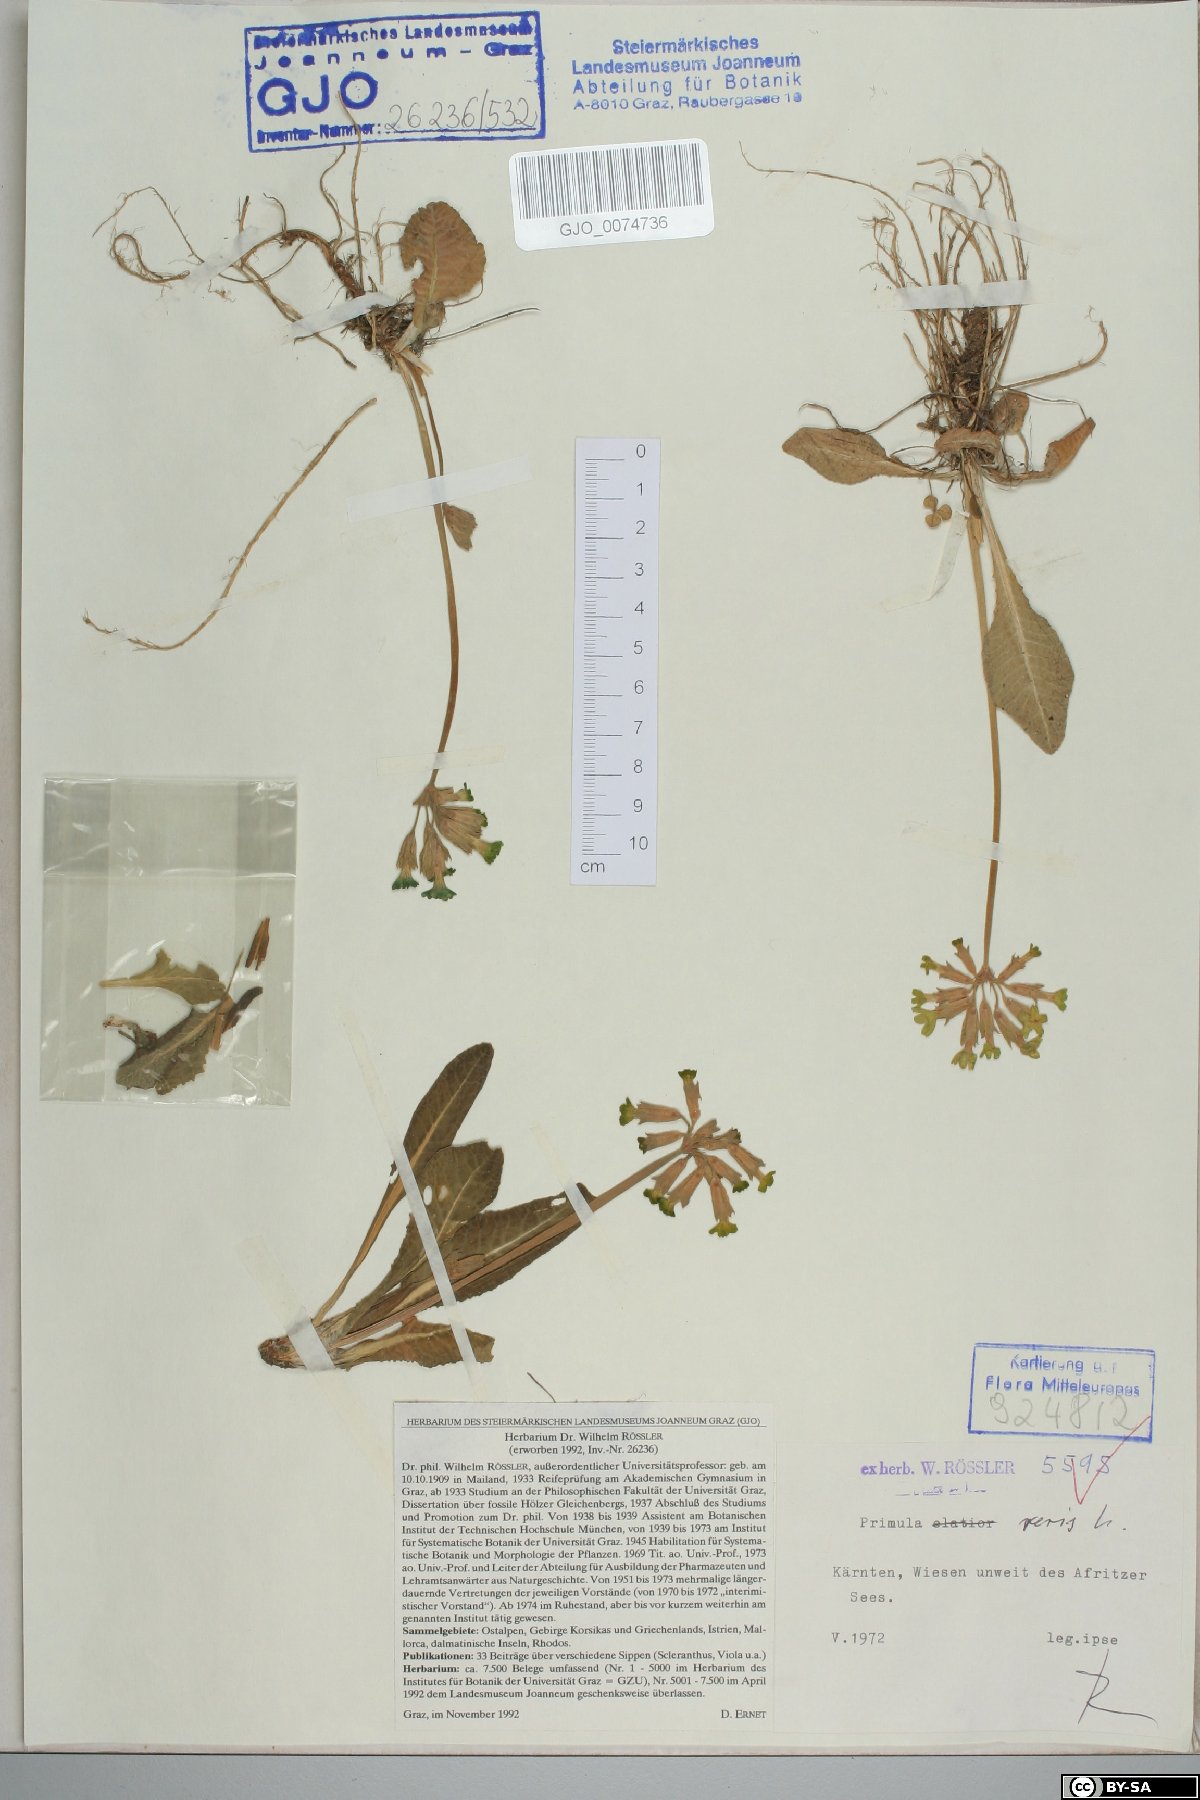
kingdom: Plantae
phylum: Tracheophyta
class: Magnoliopsida
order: Ericales
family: Primulaceae
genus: Primula
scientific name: Primula veris
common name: Cowslip
